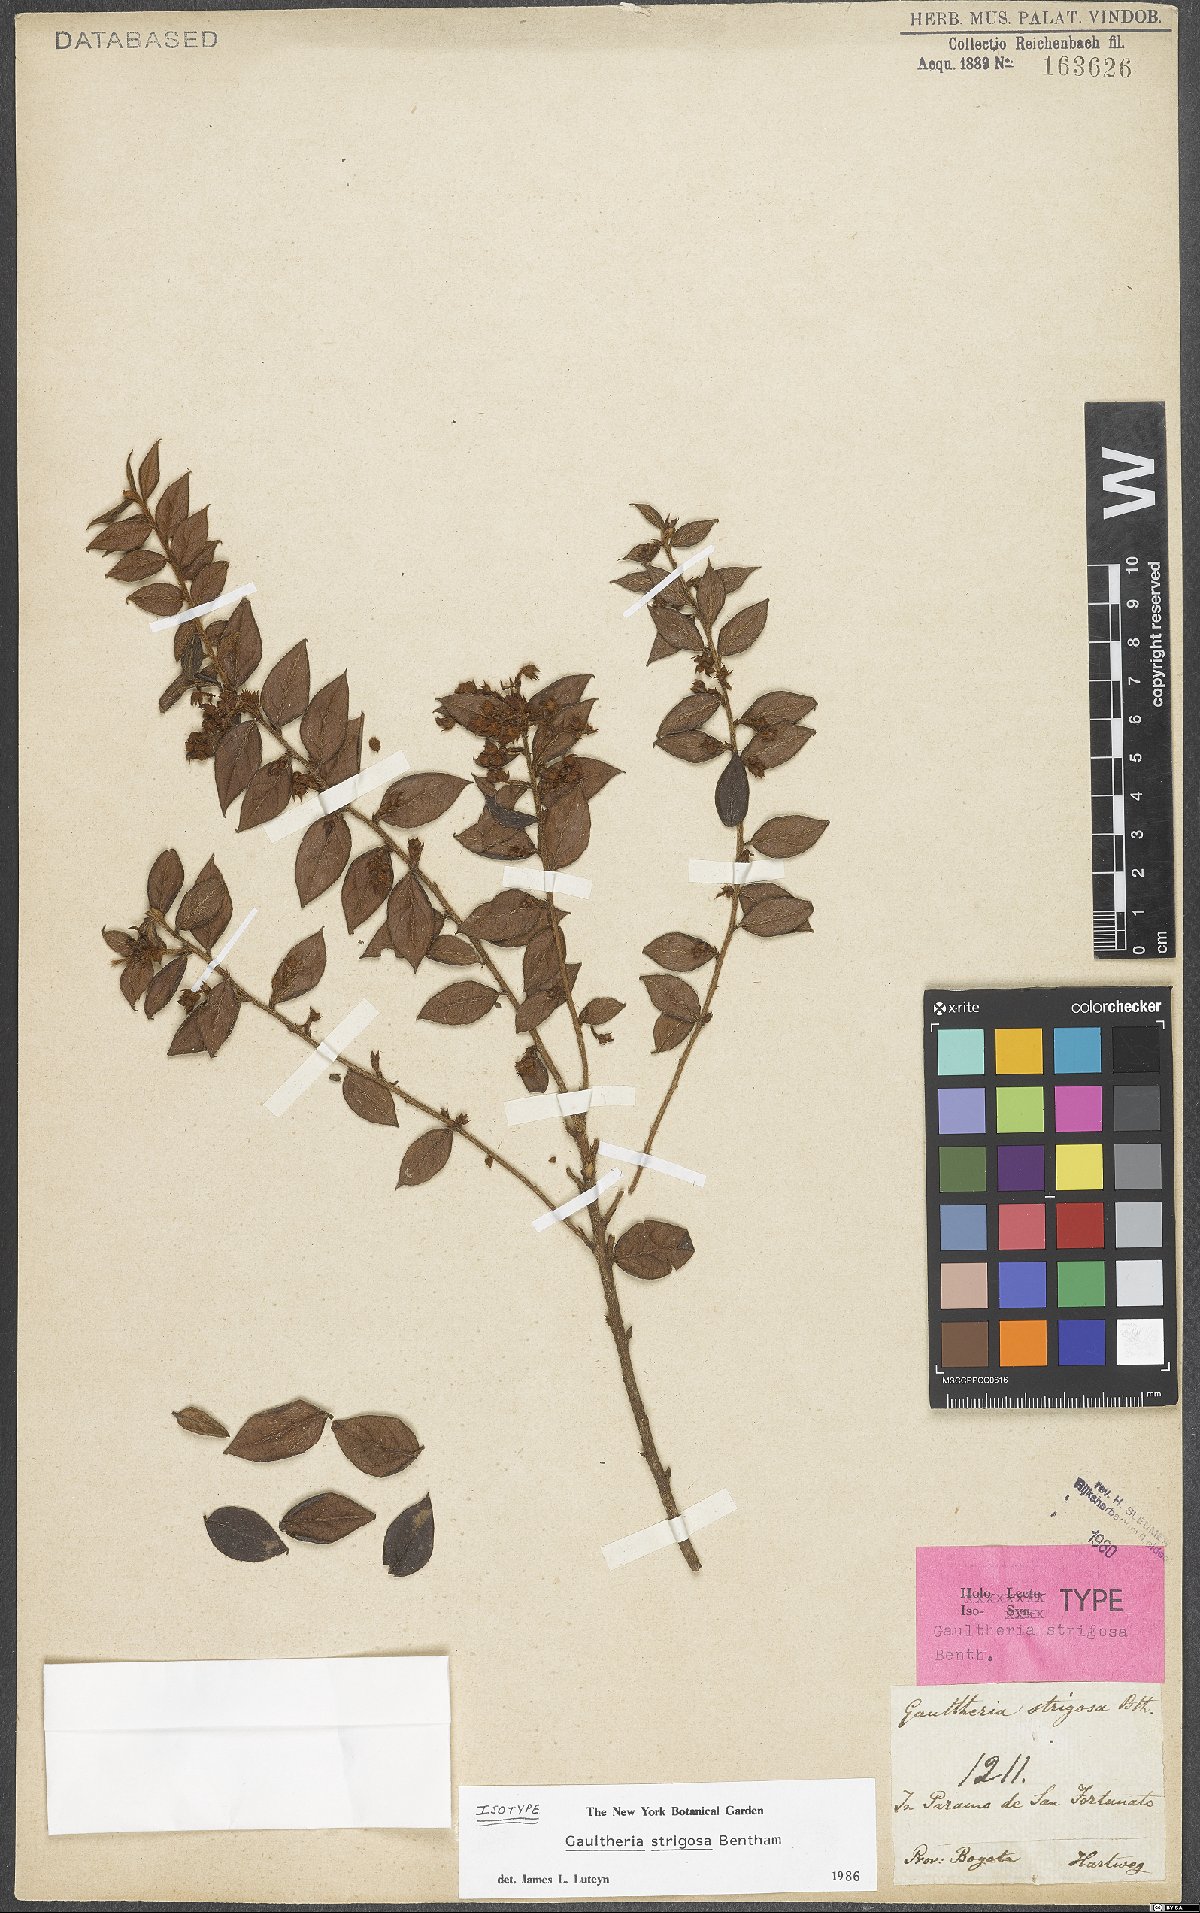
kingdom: Plantae
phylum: Tracheophyta
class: Magnoliopsida
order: Ericales
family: Ericaceae
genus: Gaultheria
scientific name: Gaultheria strigosa
